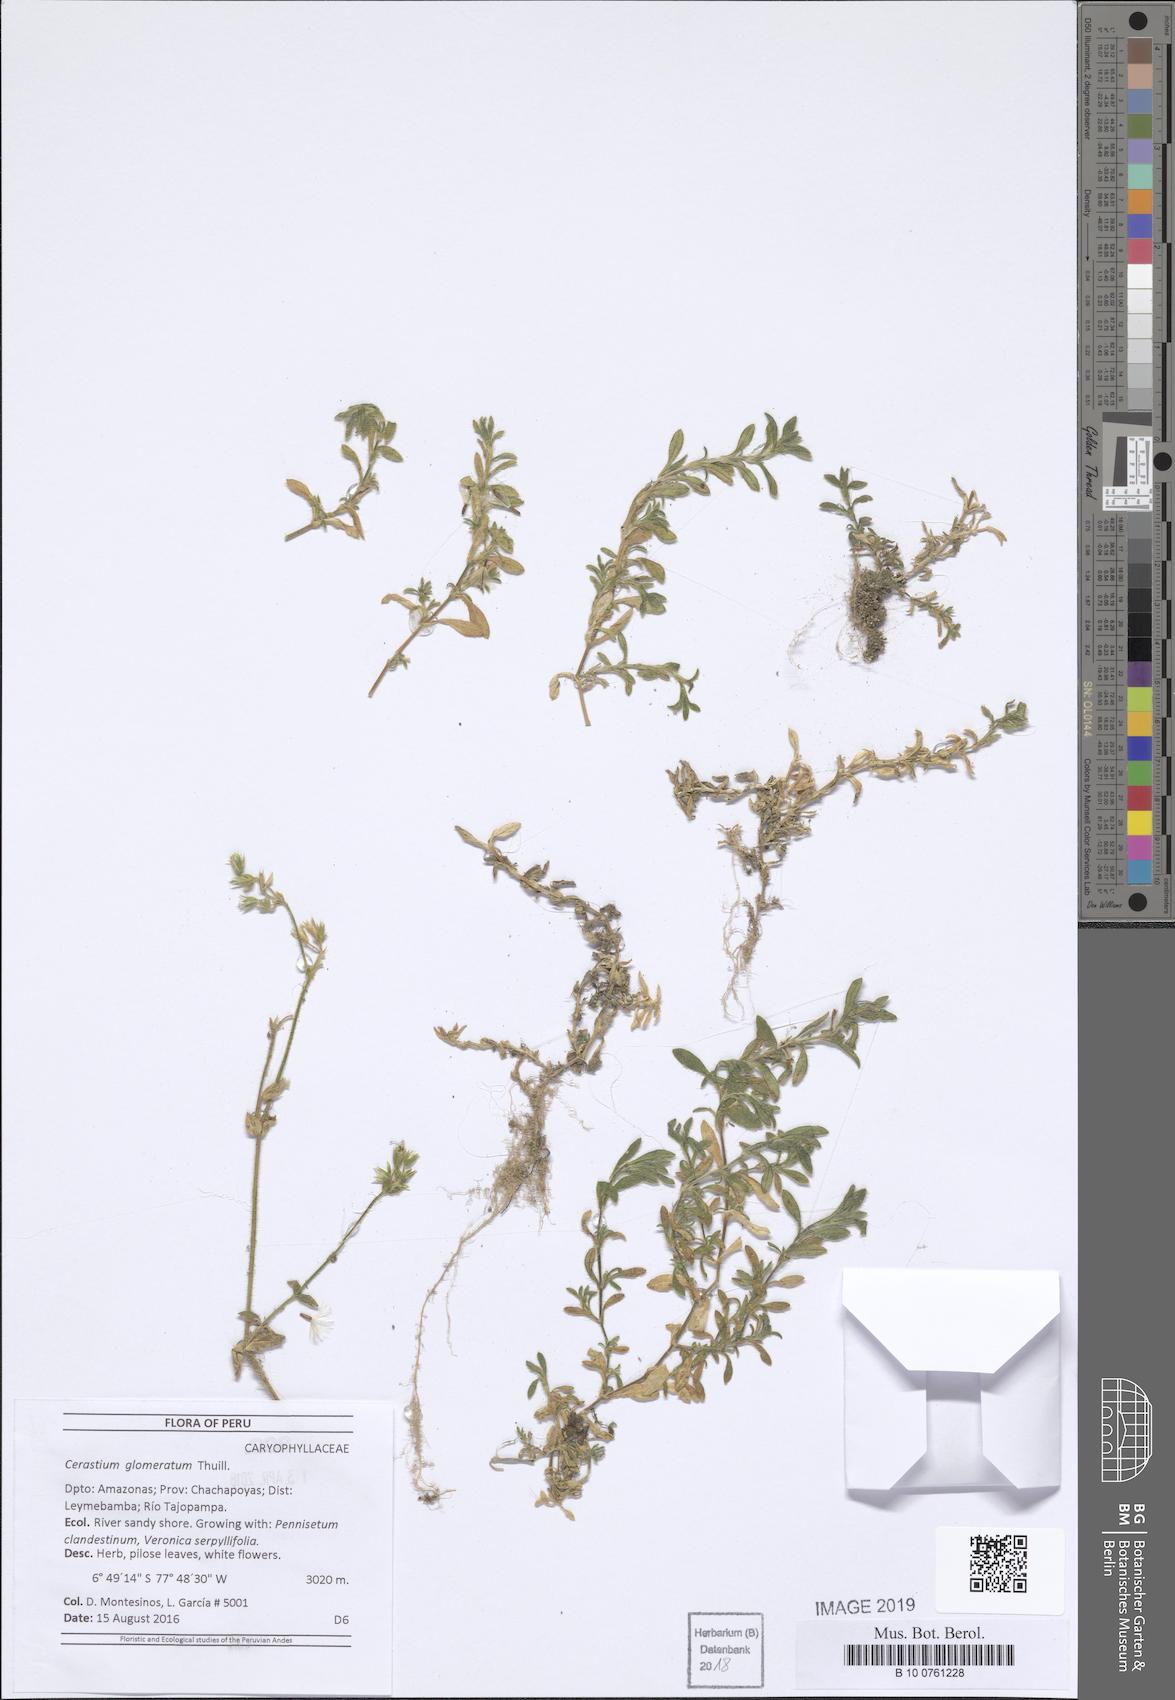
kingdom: Plantae
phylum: Tracheophyta
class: Magnoliopsida
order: Caryophyllales
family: Caryophyllaceae
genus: Cerastium
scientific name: Cerastium glomeratum
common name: Sticky chickweed
